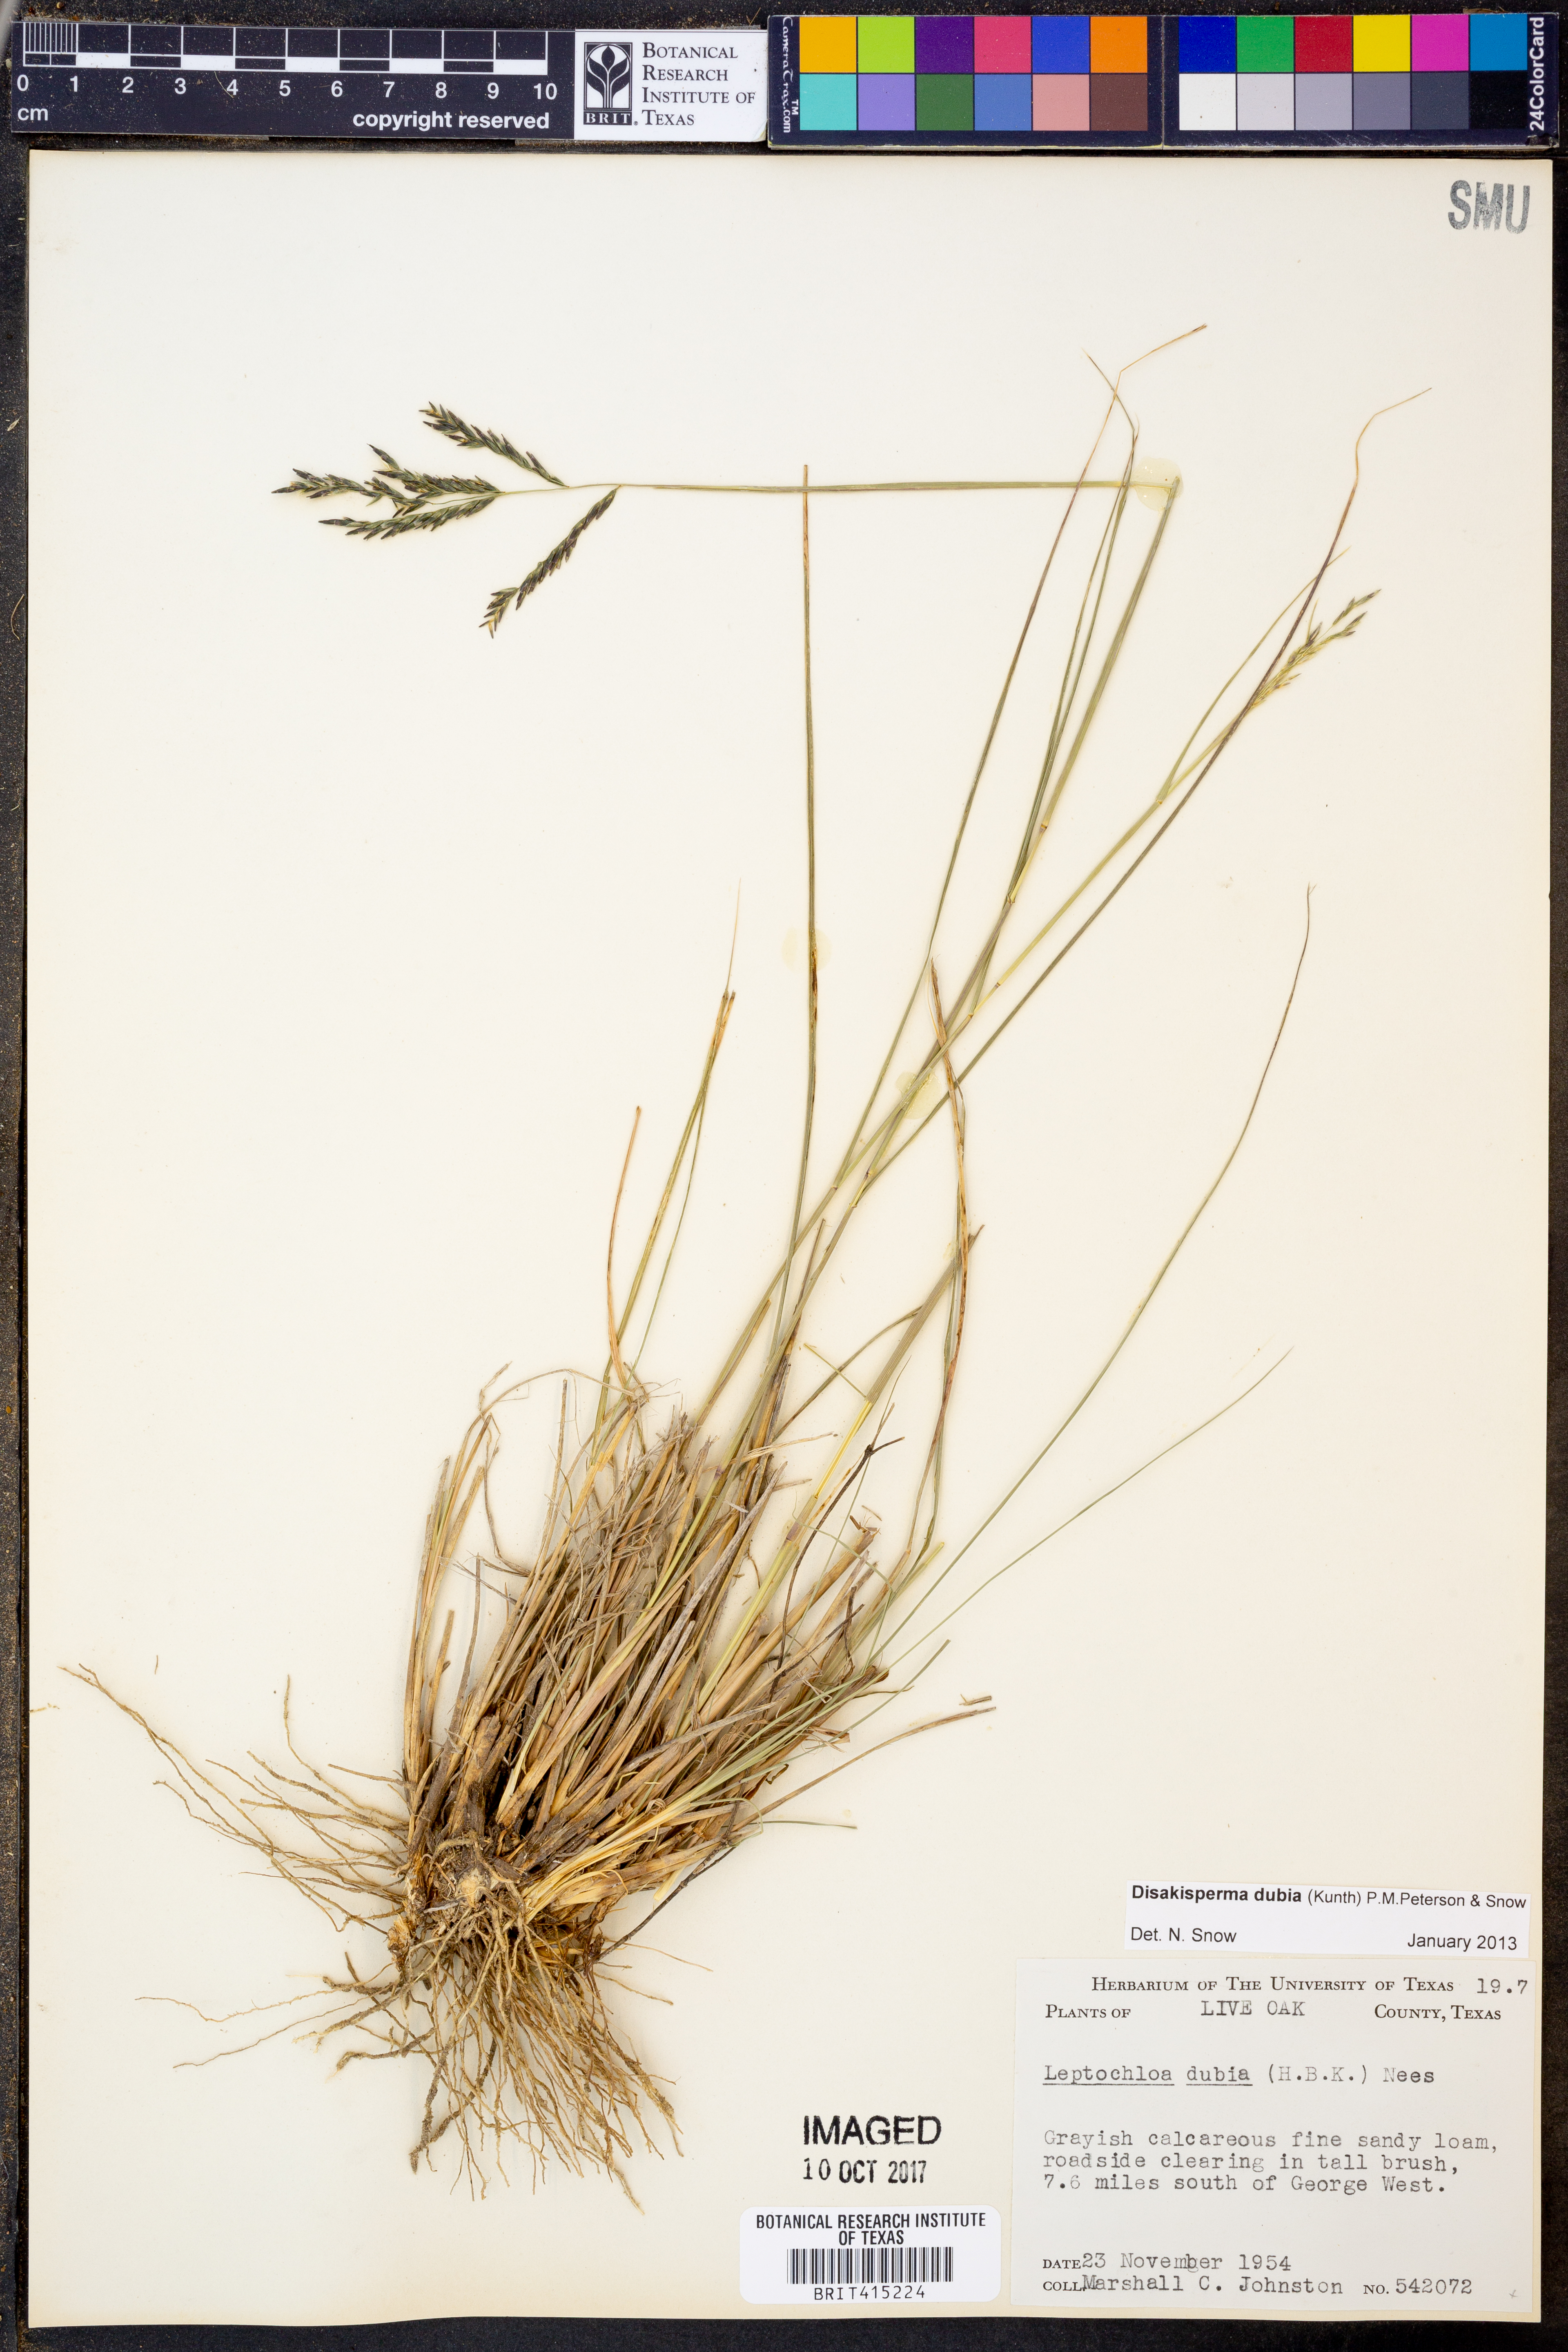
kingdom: Plantae
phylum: Tracheophyta
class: Liliopsida
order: Poales
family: Poaceae
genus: Disakisperma
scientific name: Disakisperma dubium
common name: Green sprangletop
